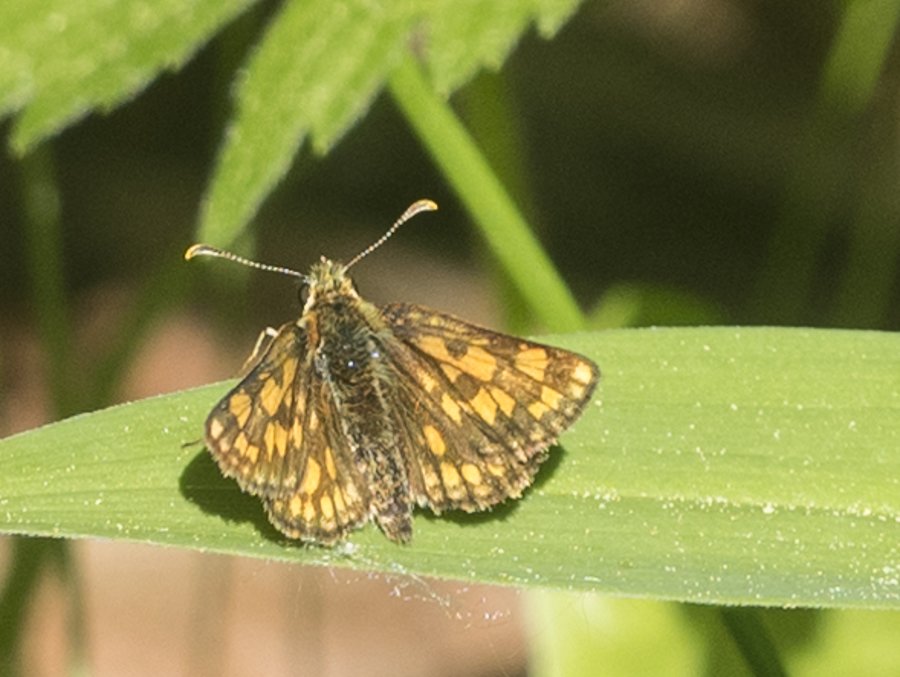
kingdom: Animalia
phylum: Arthropoda
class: Insecta
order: Lepidoptera
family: Hesperiidae
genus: Carterocephalus
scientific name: Carterocephalus palaemon
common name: Chequered Skipper
